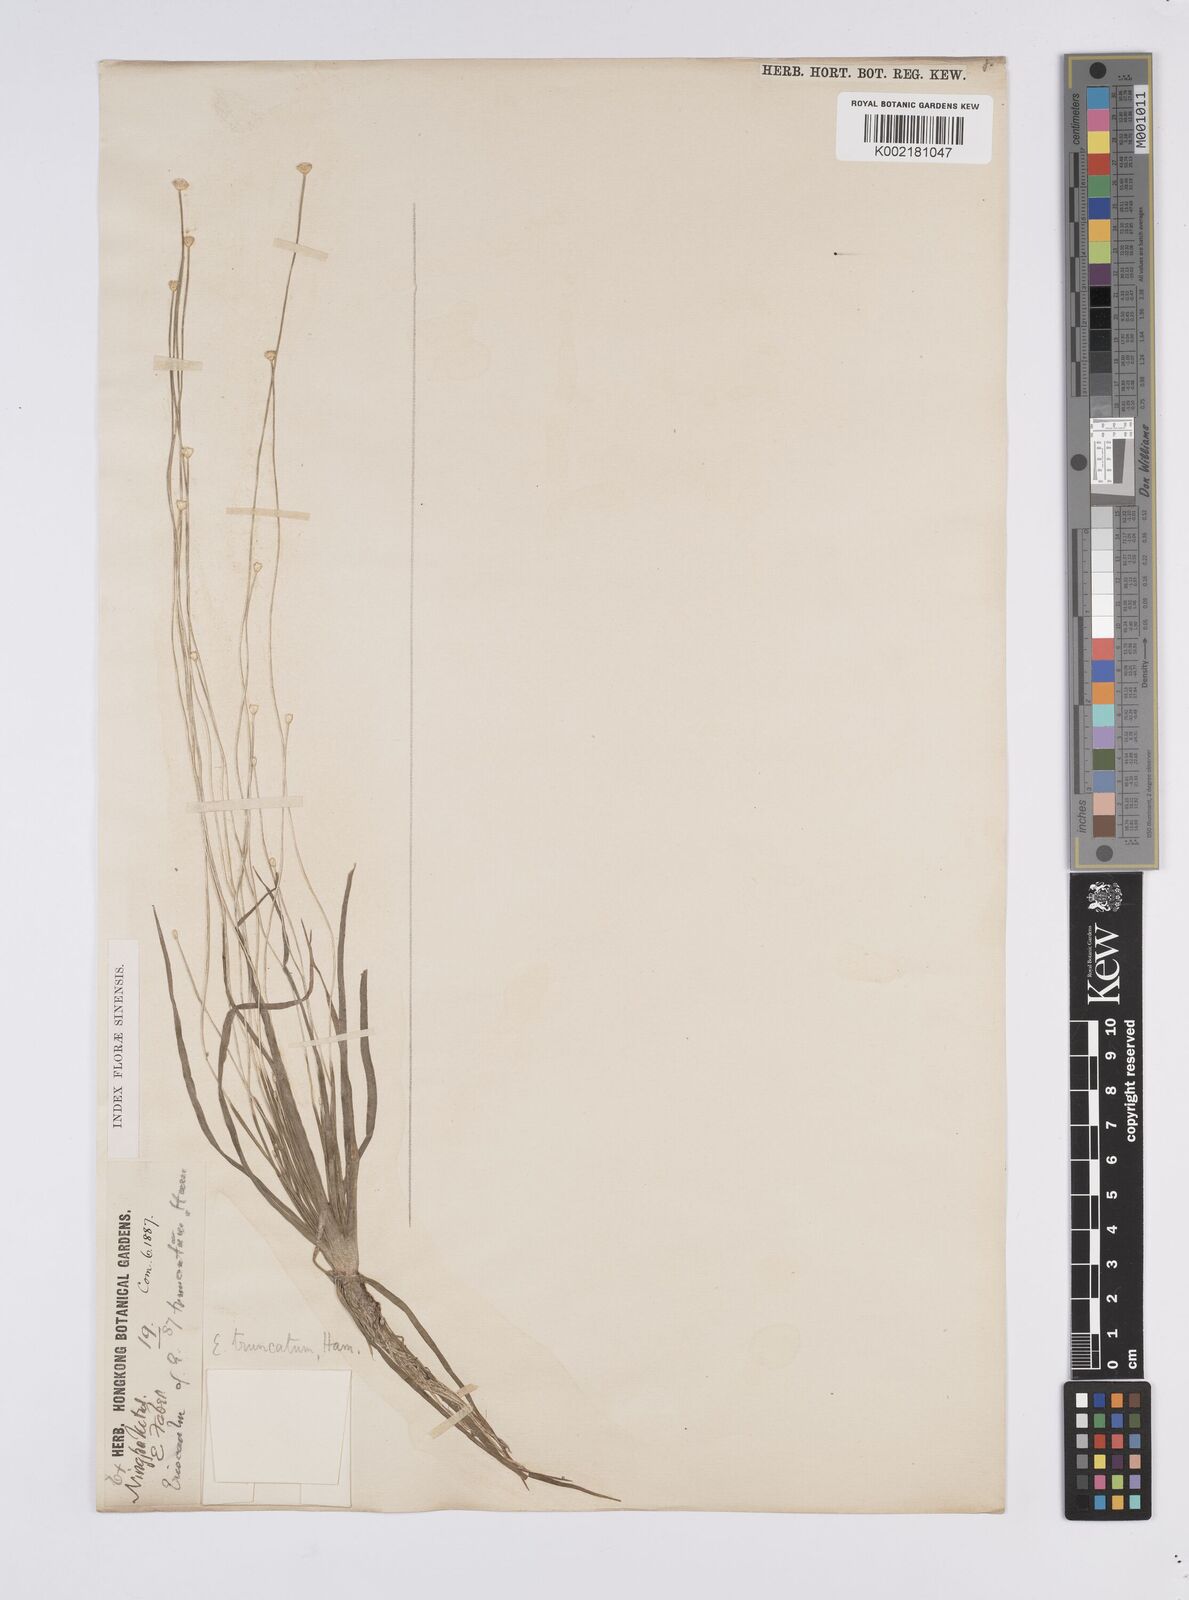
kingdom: Plantae
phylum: Tracheophyta
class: Liliopsida
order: Poales
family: Eriocaulaceae
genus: Eriocaulon
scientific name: Eriocaulon truncatum
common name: Short pipe-wort
